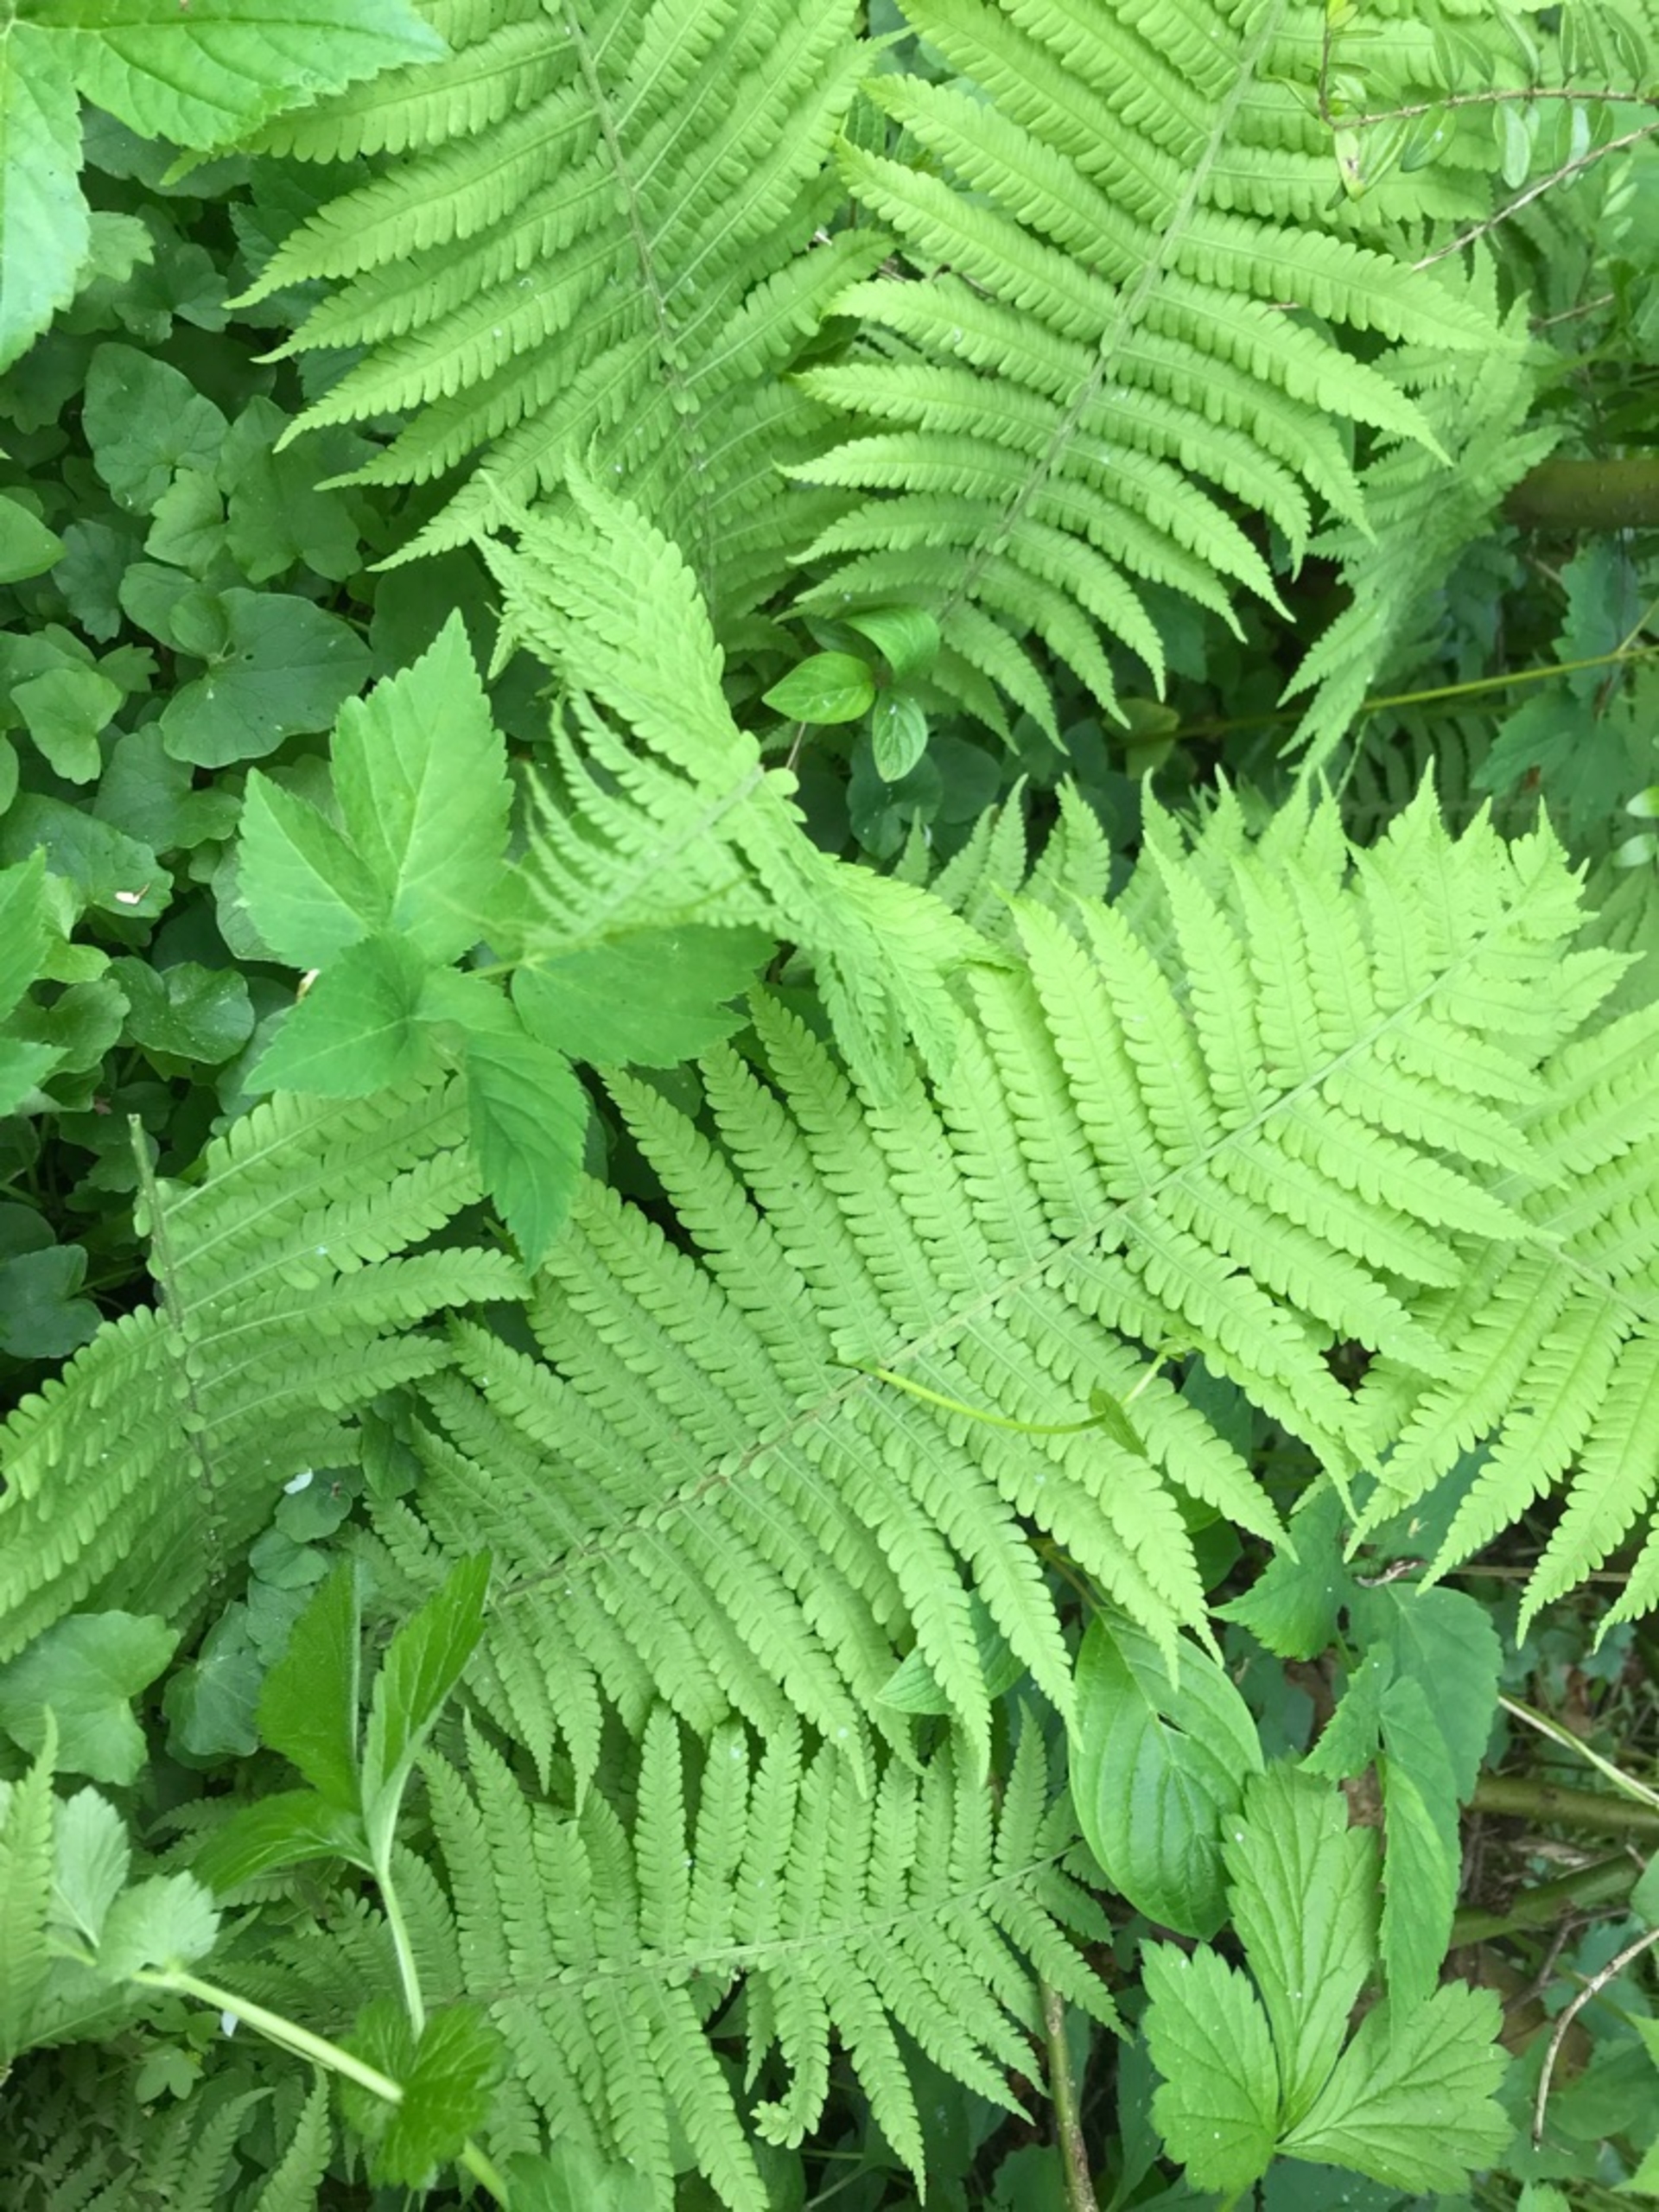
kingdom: Plantae
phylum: Tracheophyta
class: Polypodiopsida
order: Polypodiales
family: Dryopteridaceae
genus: Dryopteris
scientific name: Dryopteris filix-mas
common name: Almindelig mangeløv
